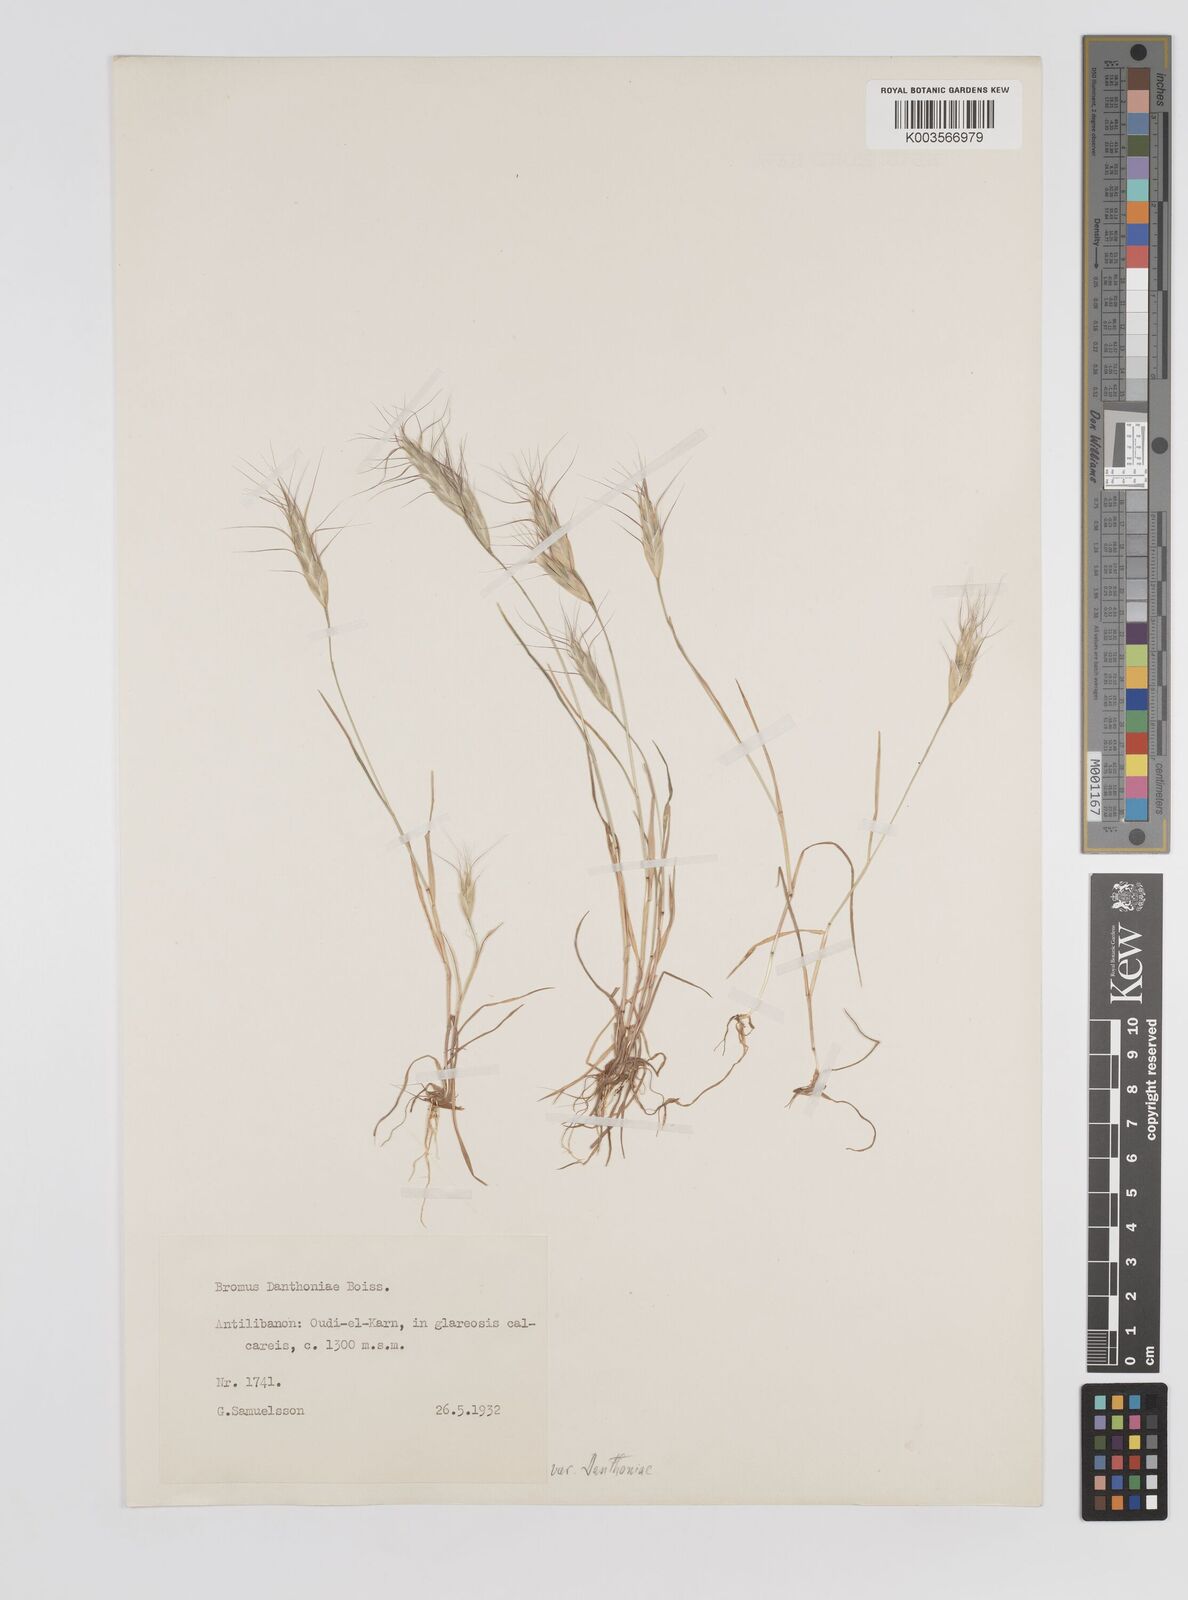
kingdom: Plantae
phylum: Tracheophyta
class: Liliopsida
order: Poales
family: Poaceae
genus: Bromus
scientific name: Bromus danthoniae
